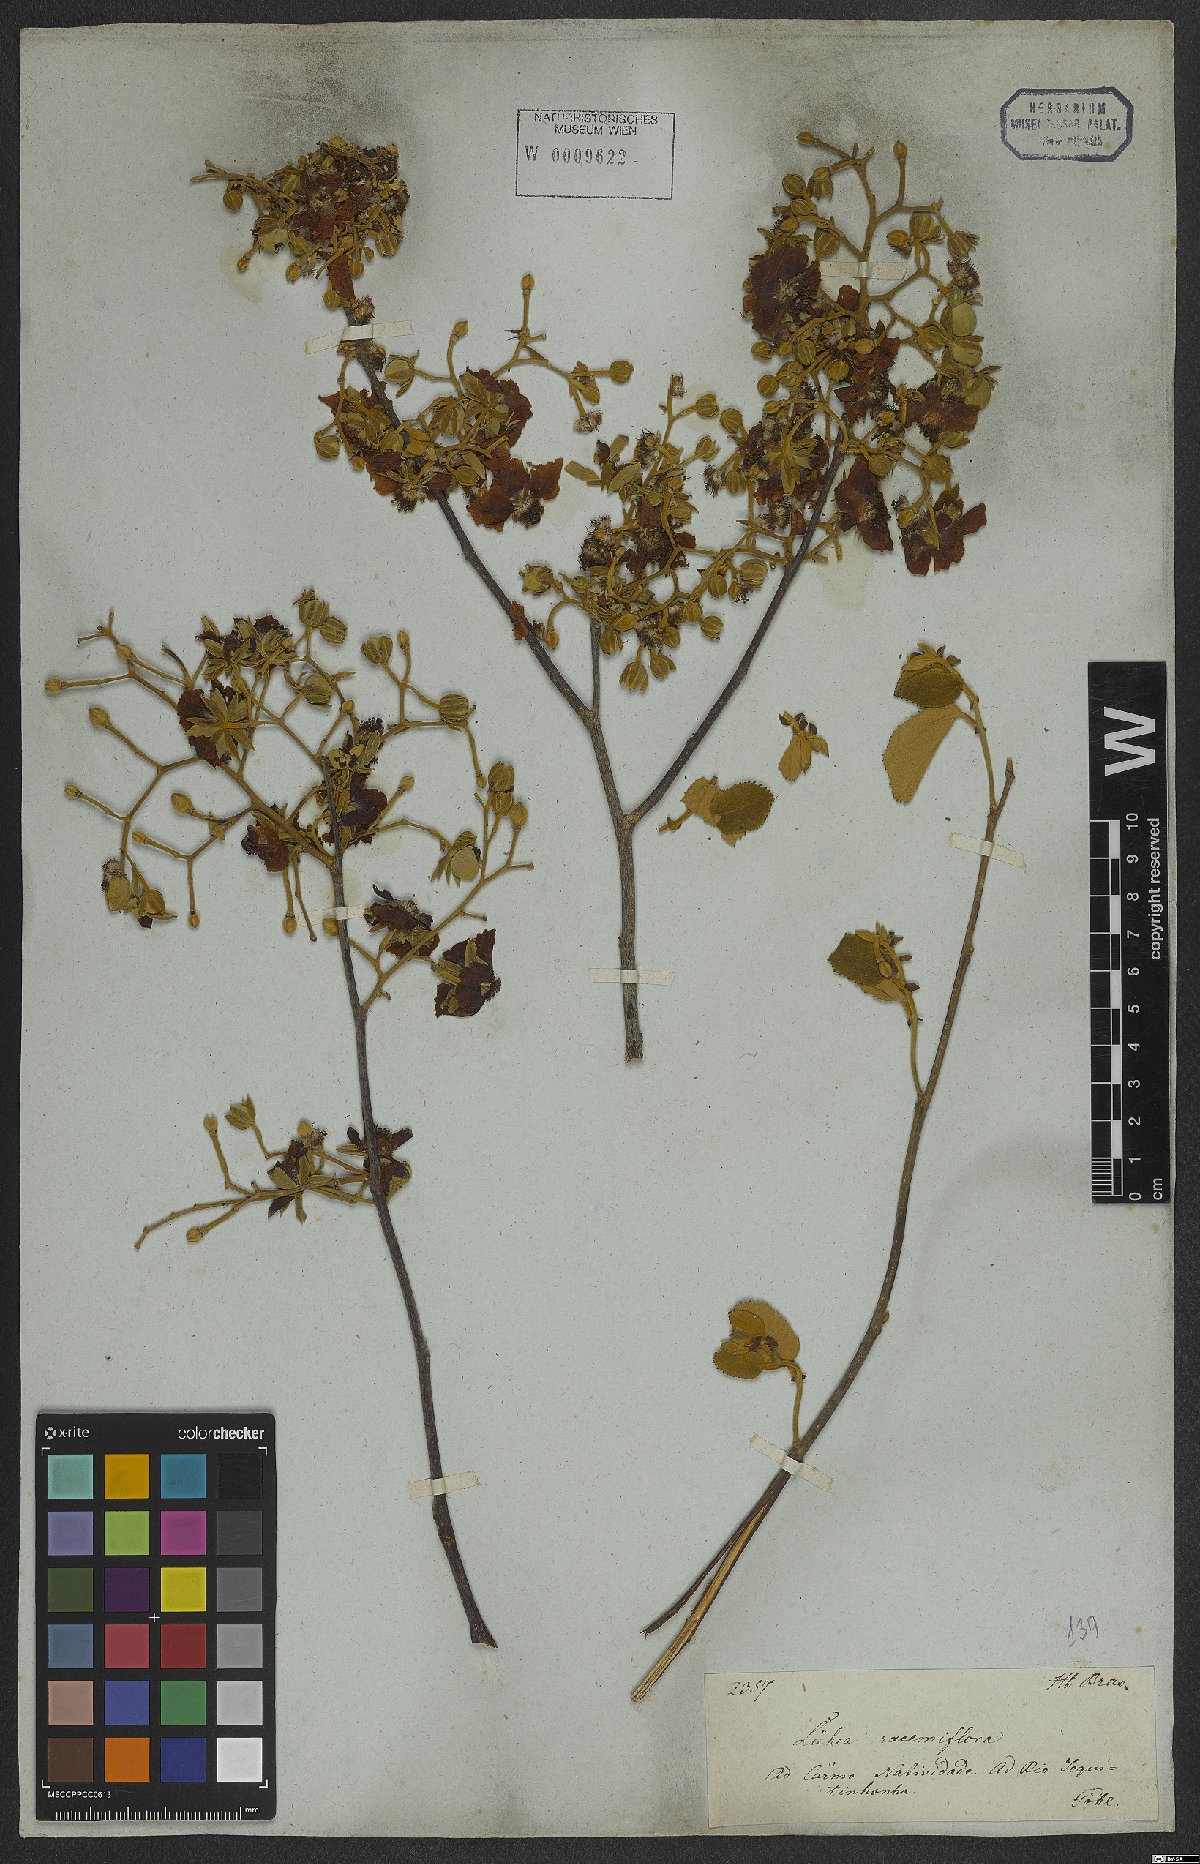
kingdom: Plantae
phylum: Tracheophyta
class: Magnoliopsida
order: Malvales
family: Malvaceae
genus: Luehea
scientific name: Luehea
